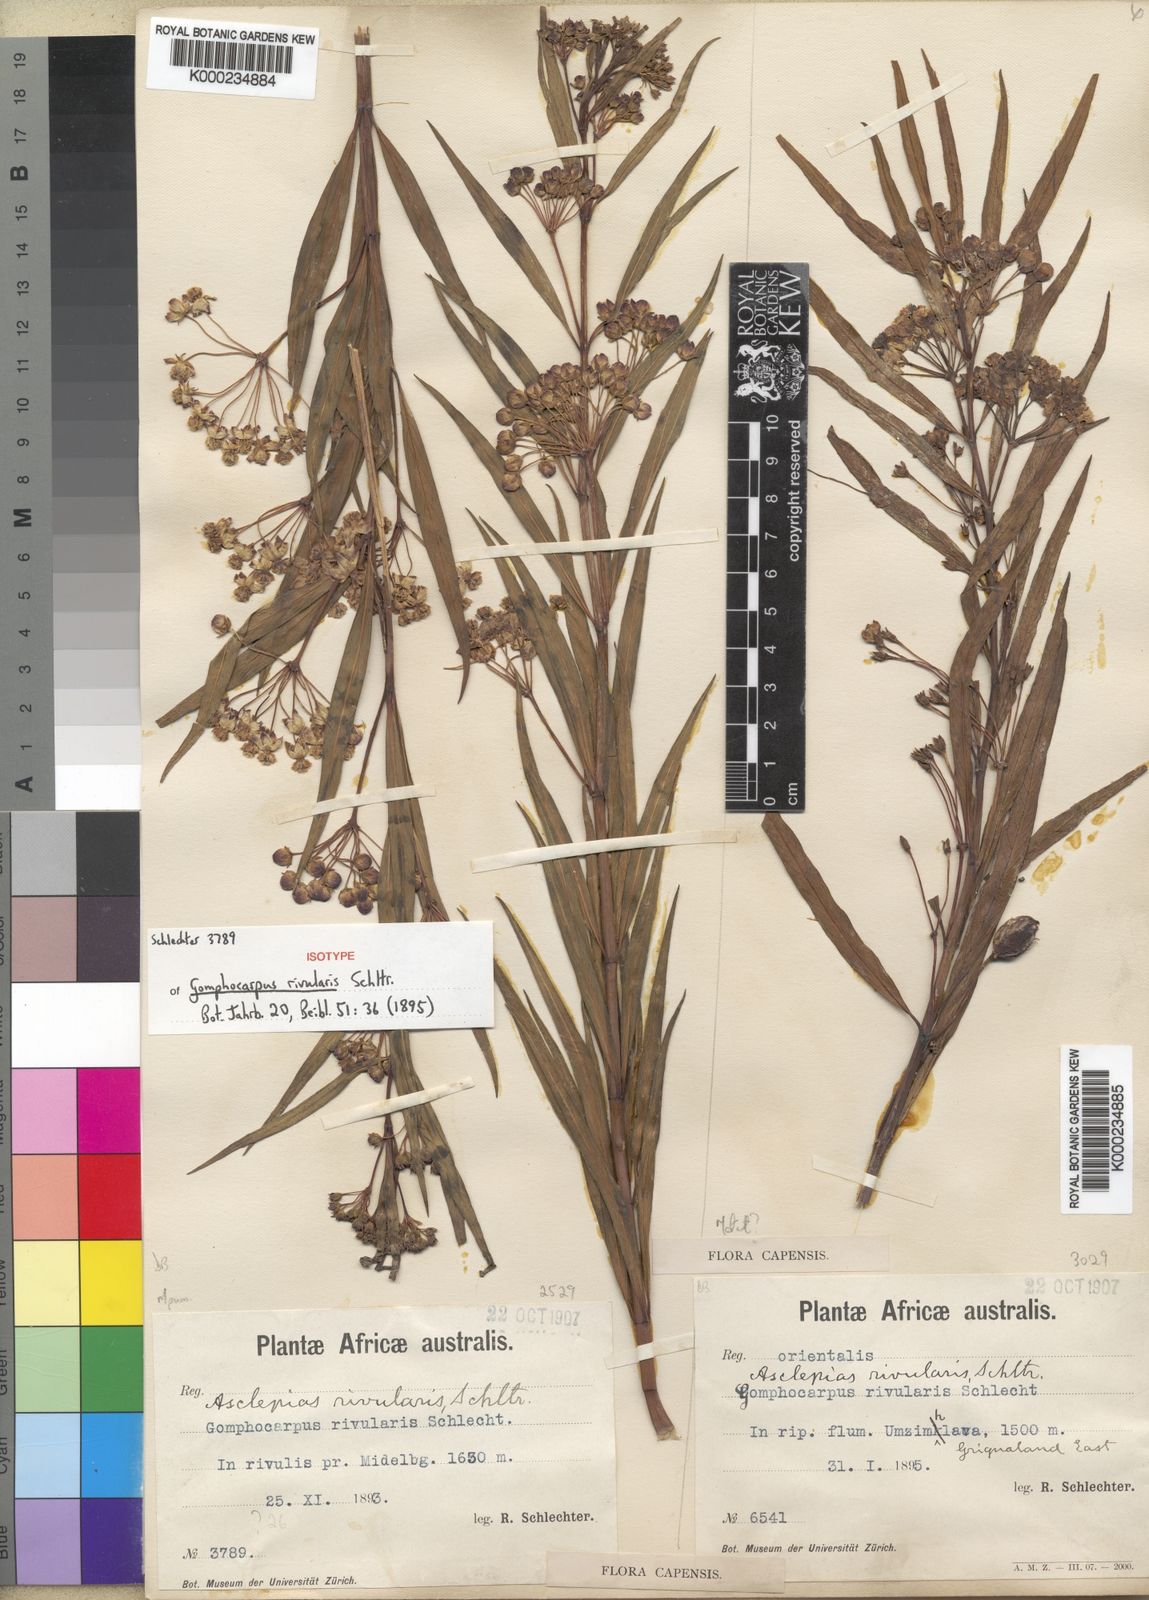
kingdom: Plantae
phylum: Tracheophyta
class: Magnoliopsida
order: Gentianales
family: Apocynaceae
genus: Gomphocarpus
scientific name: Gomphocarpus rivularis
